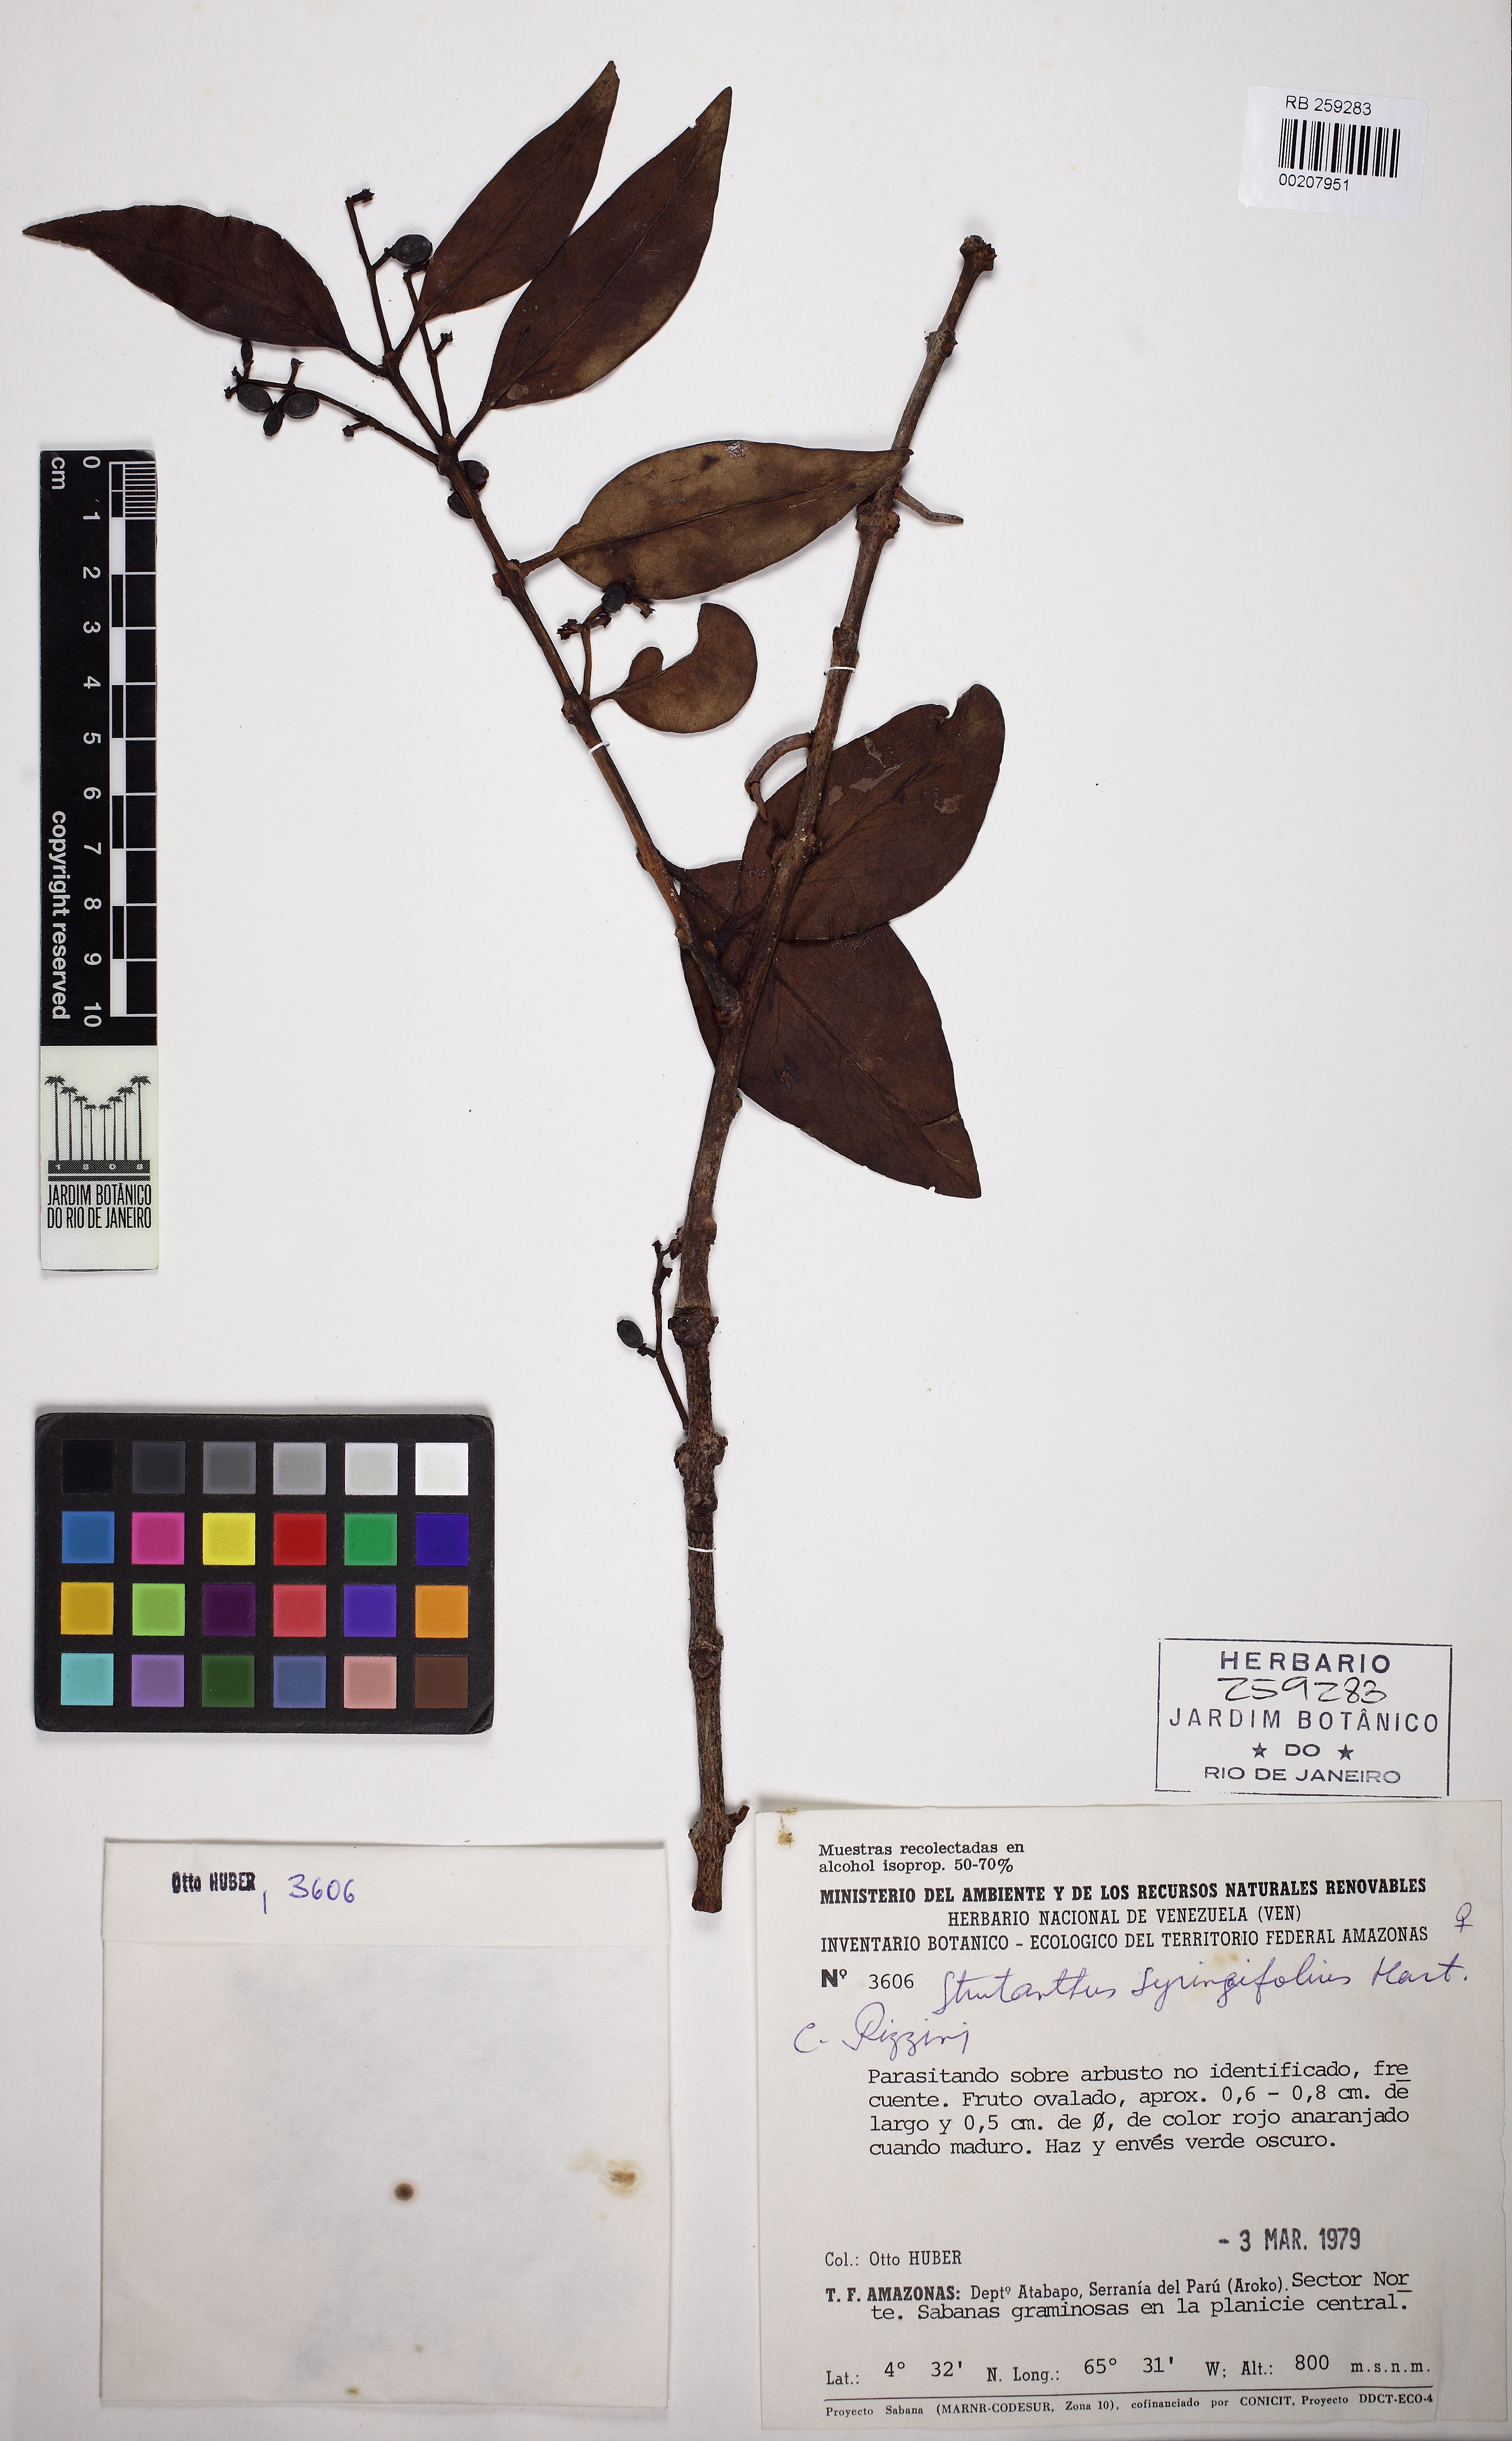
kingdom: Plantae
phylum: Tracheophyta
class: Magnoliopsida
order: Santalales
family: Loranthaceae
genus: Struthanthus
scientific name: Struthanthus syringifolius
